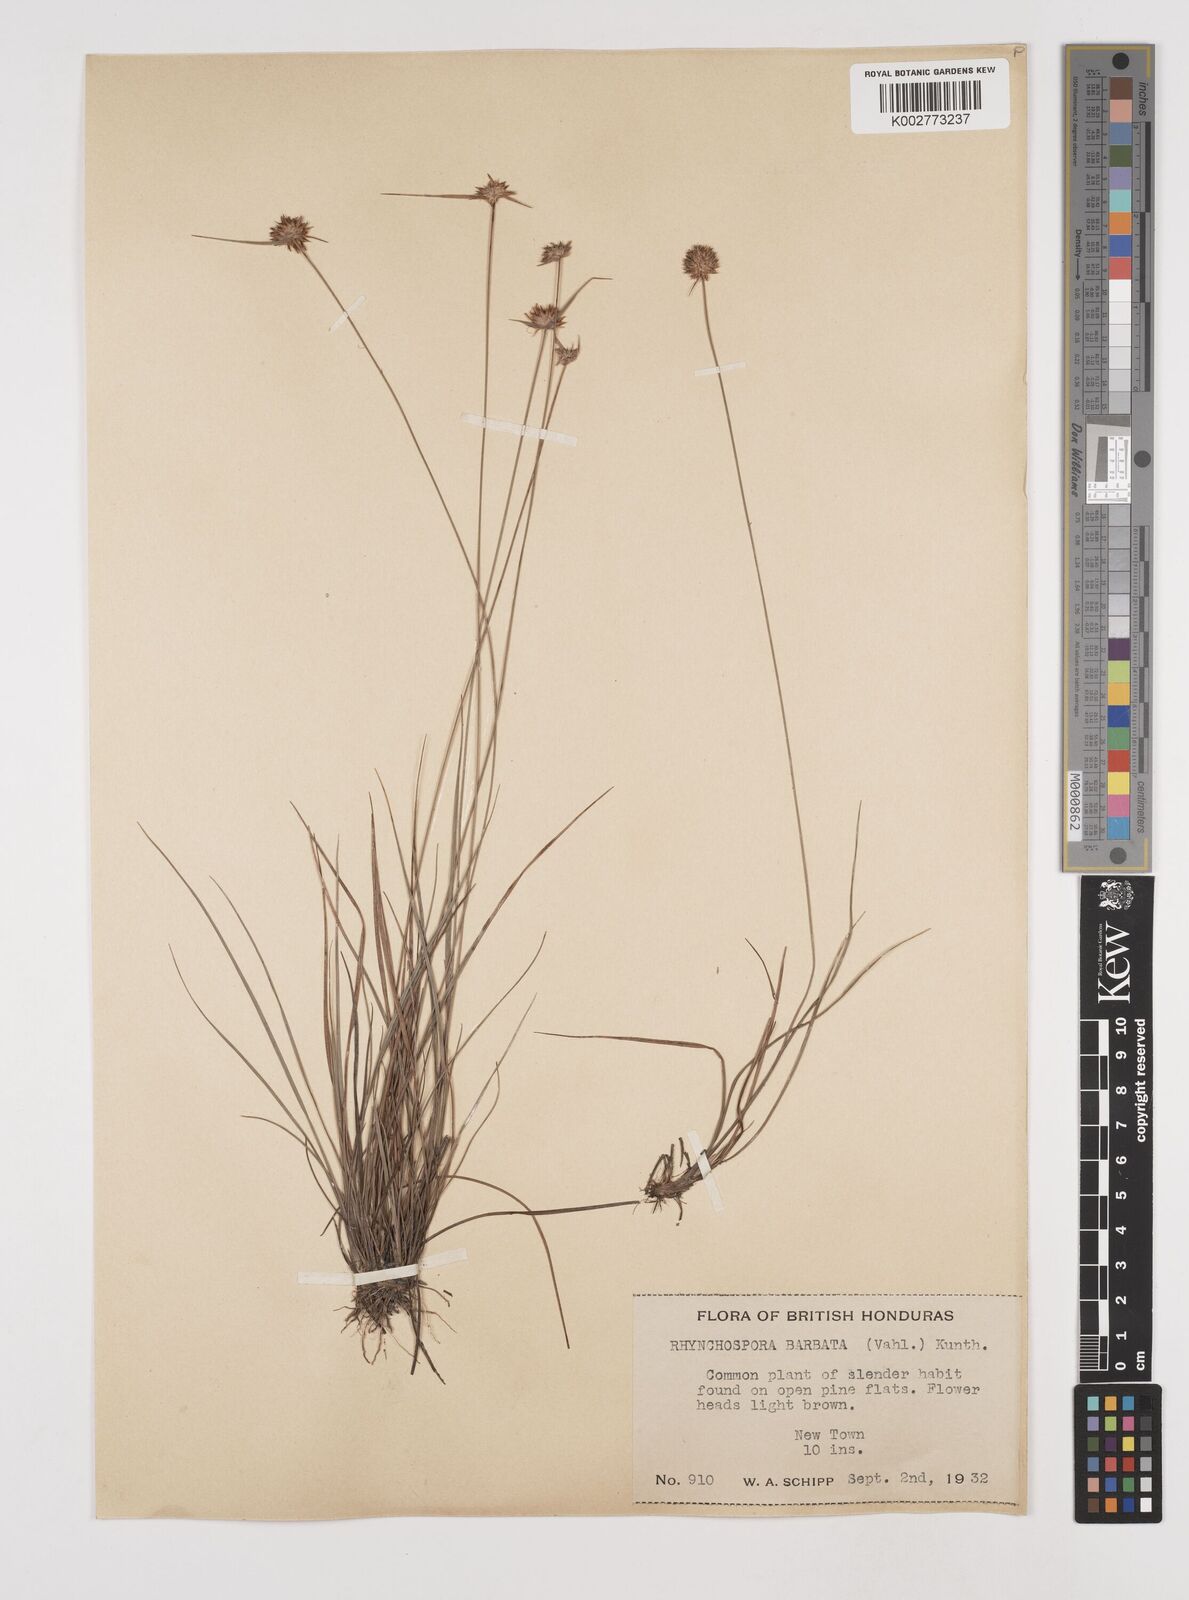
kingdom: Plantae
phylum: Tracheophyta
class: Liliopsida
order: Poales
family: Cyperaceae
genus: Rhynchospora
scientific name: Rhynchospora barbata
